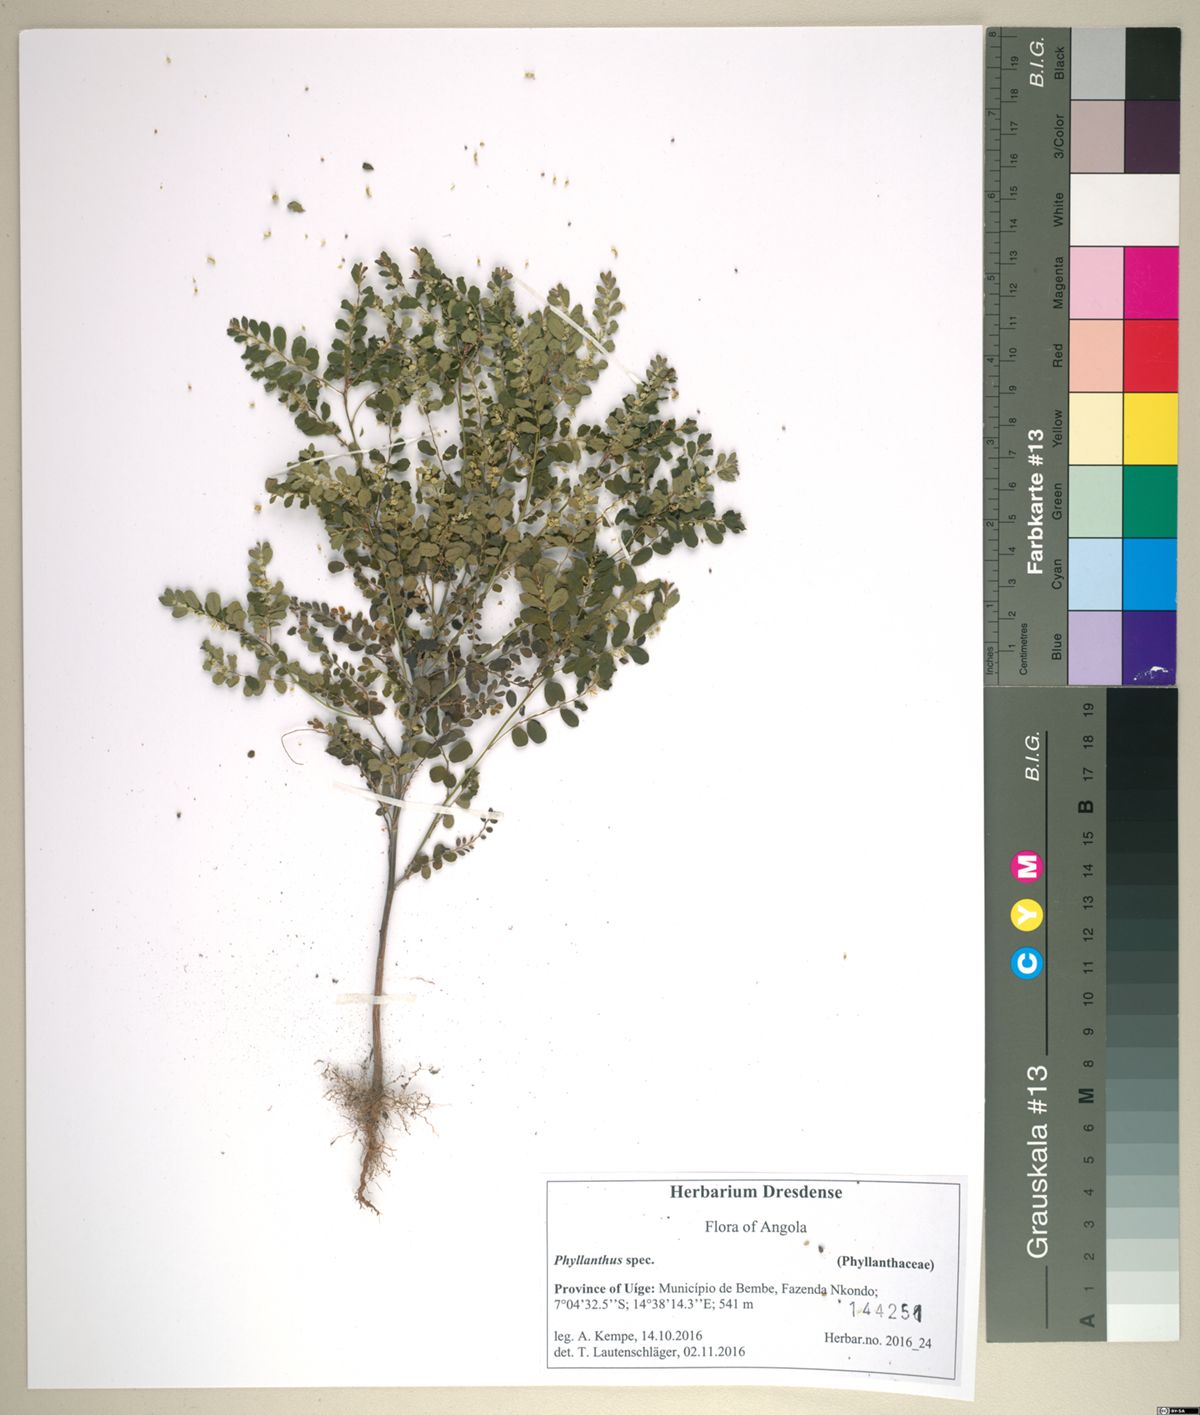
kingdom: Plantae
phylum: Tracheophyta
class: Magnoliopsida
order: Malpighiales
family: Phyllanthaceae
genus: Phyllanthus
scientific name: Phyllanthus
